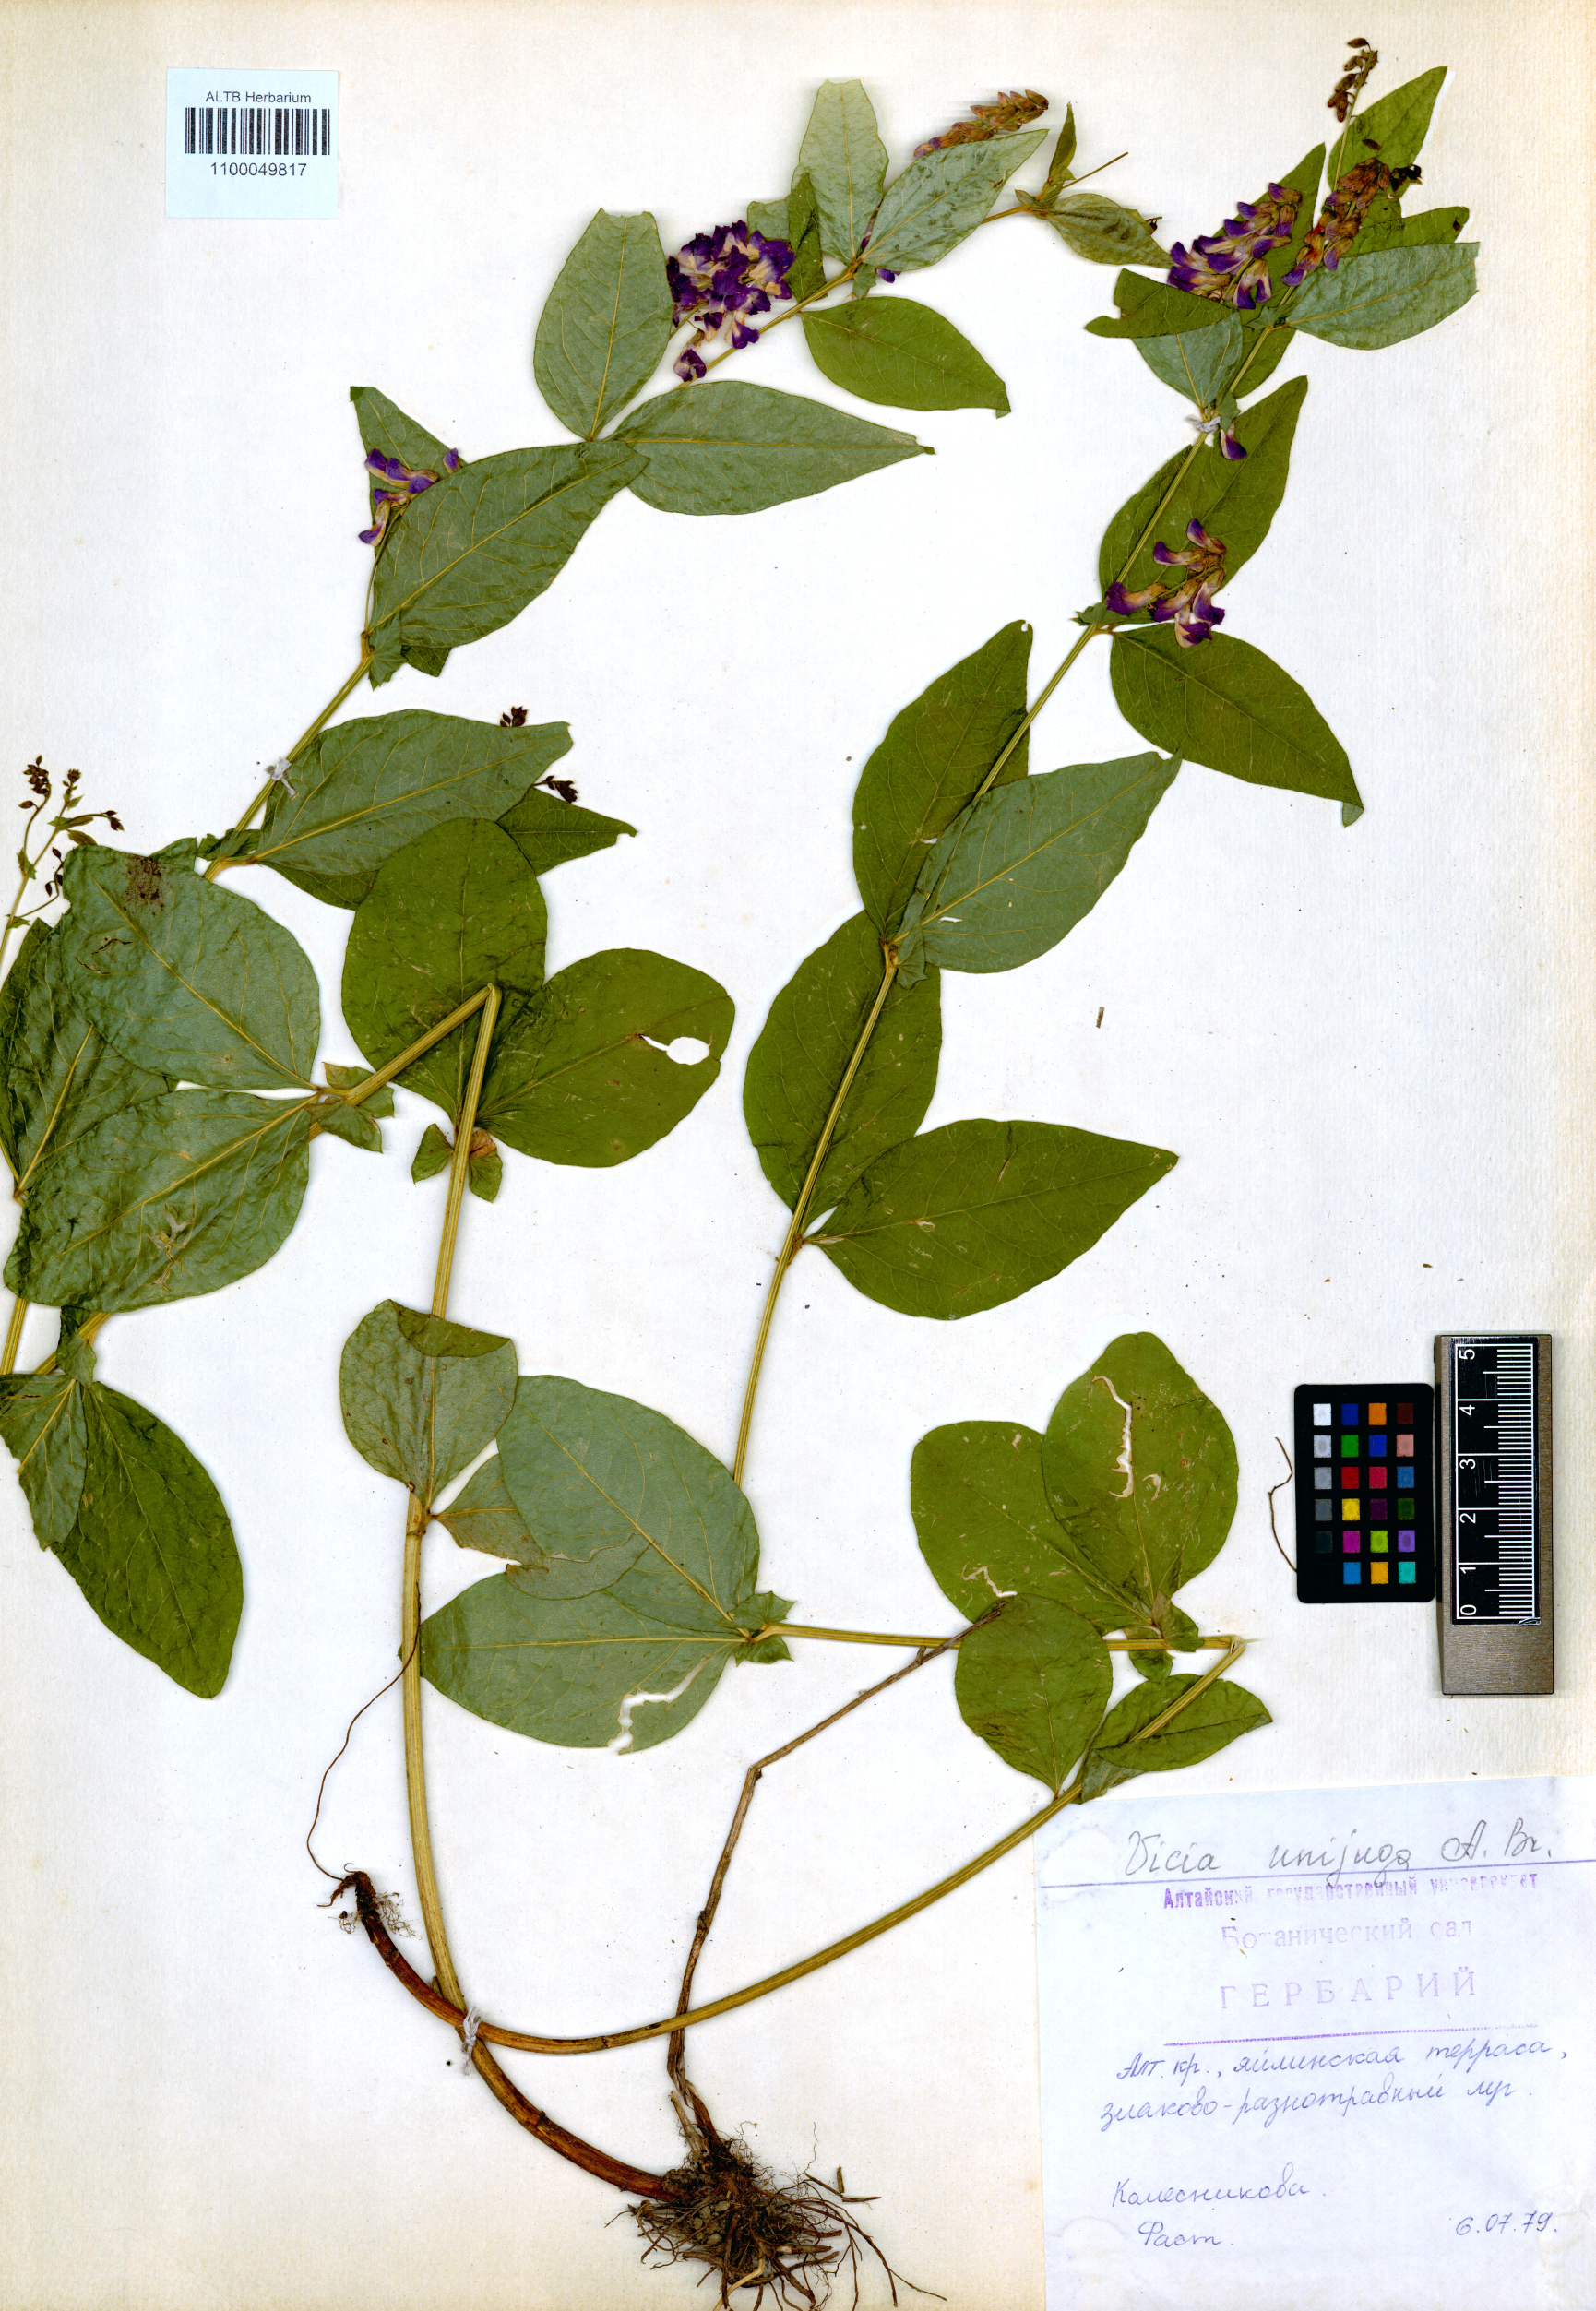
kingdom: Plantae
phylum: Tracheophyta
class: Magnoliopsida
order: Fabales
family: Fabaceae
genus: Vicia
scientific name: Vicia unijuga
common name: Two-leaf vetch
